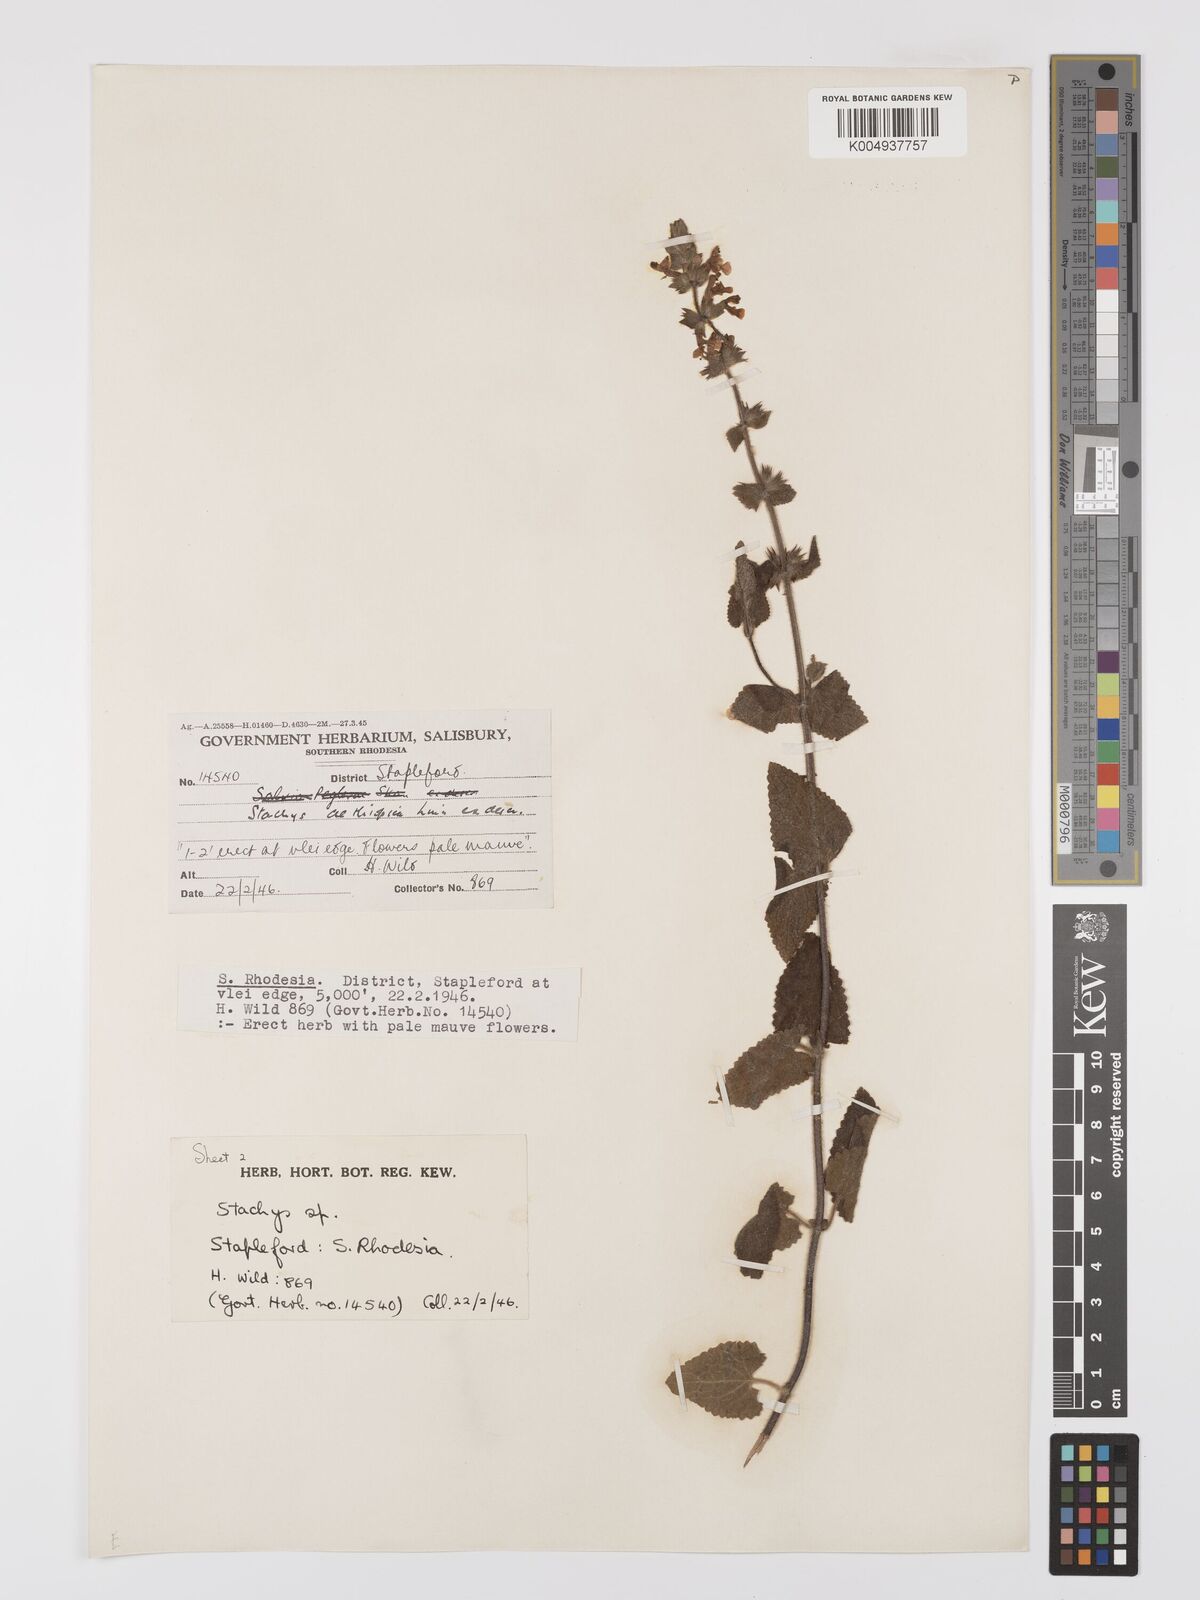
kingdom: Plantae
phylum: Tracheophyta
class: Magnoliopsida
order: Lamiales
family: Lamiaceae
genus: Stachys
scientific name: Stachys aethiopica
